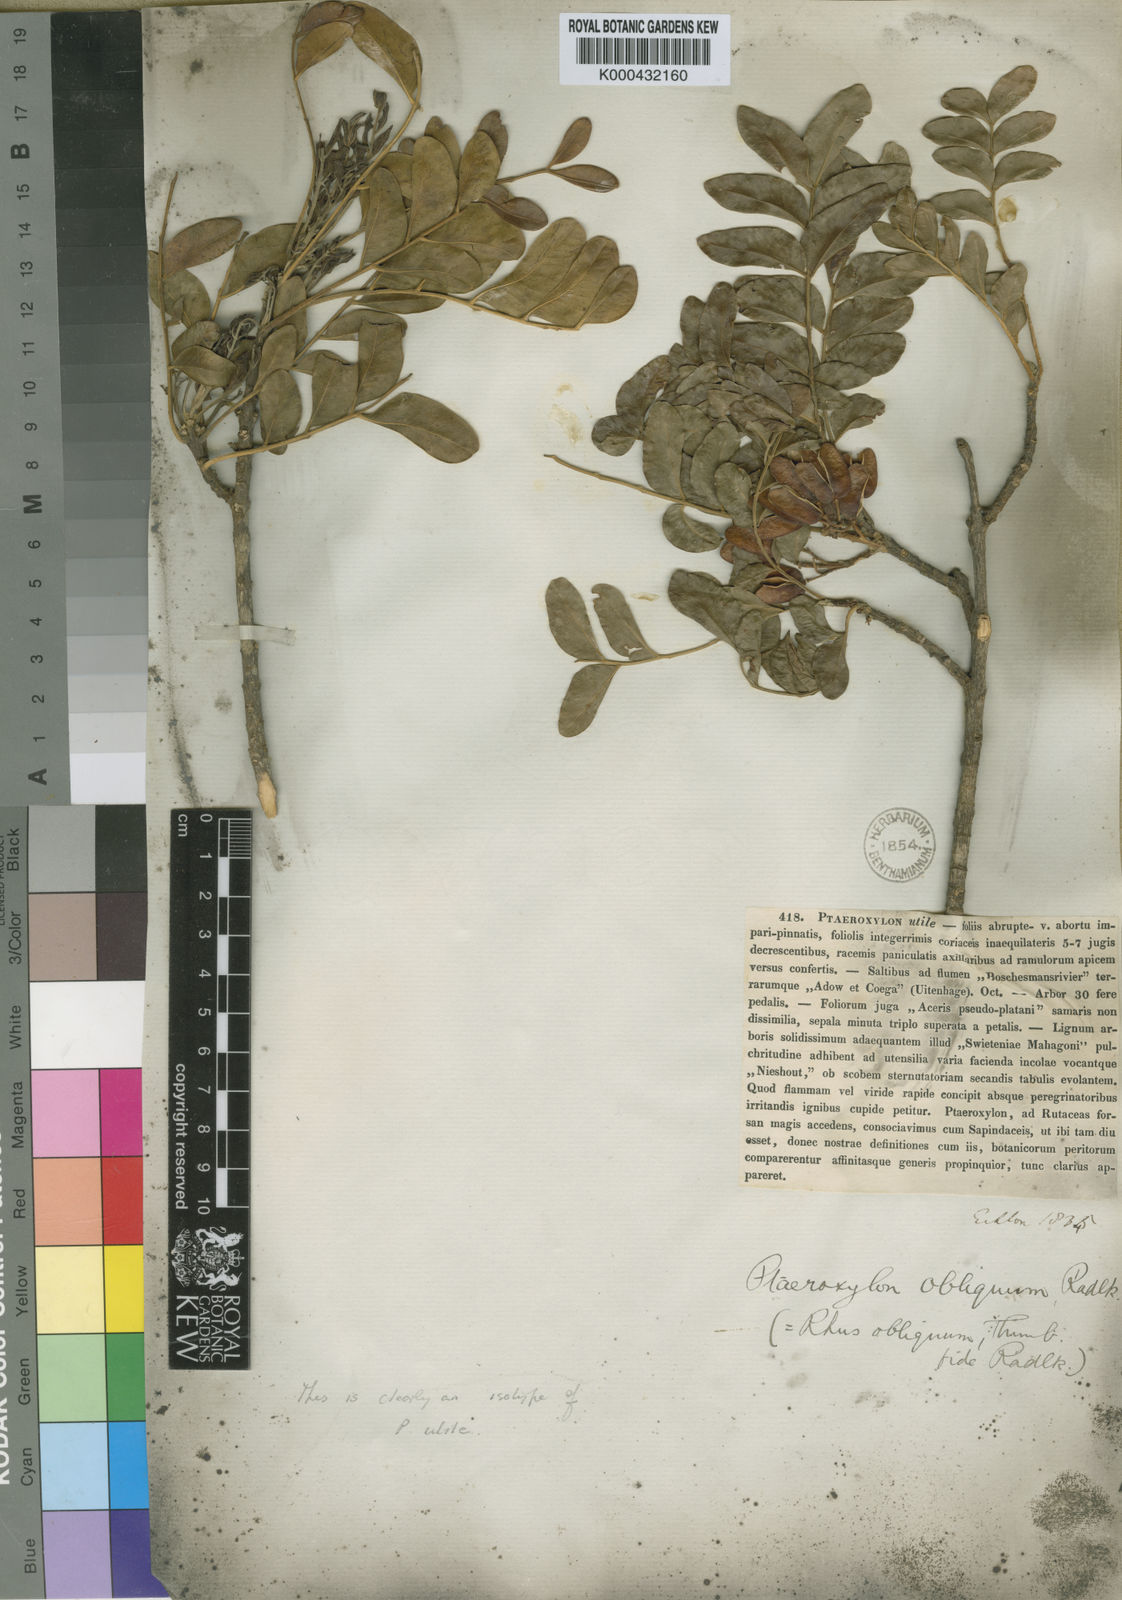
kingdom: Plantae
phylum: Tracheophyta
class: Magnoliopsida
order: Sapindales
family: Rutaceae
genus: Ptaeroxylon
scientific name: Ptaeroxylon obliquum
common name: Sneezewood
